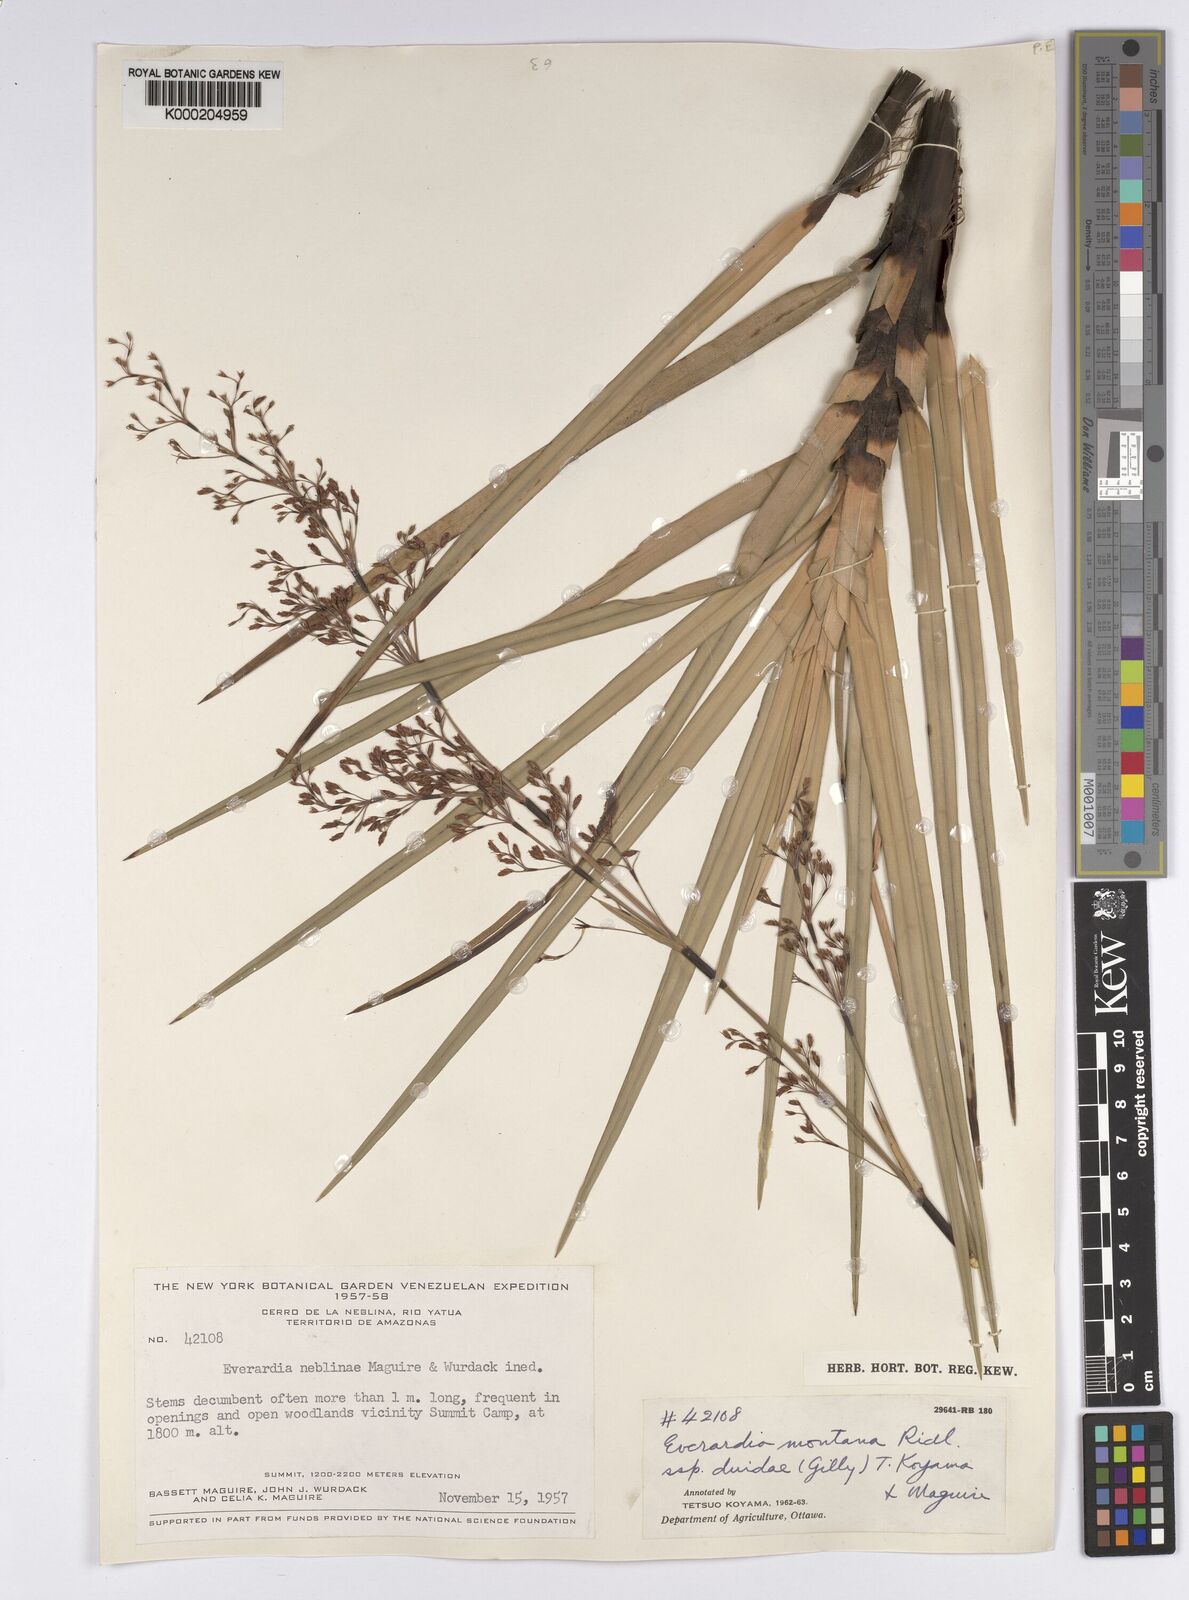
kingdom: Plantae
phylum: Tracheophyta
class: Liliopsida
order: Poales
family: Cyperaceae
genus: Cephalocarpus
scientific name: Cephalocarpus duidae
